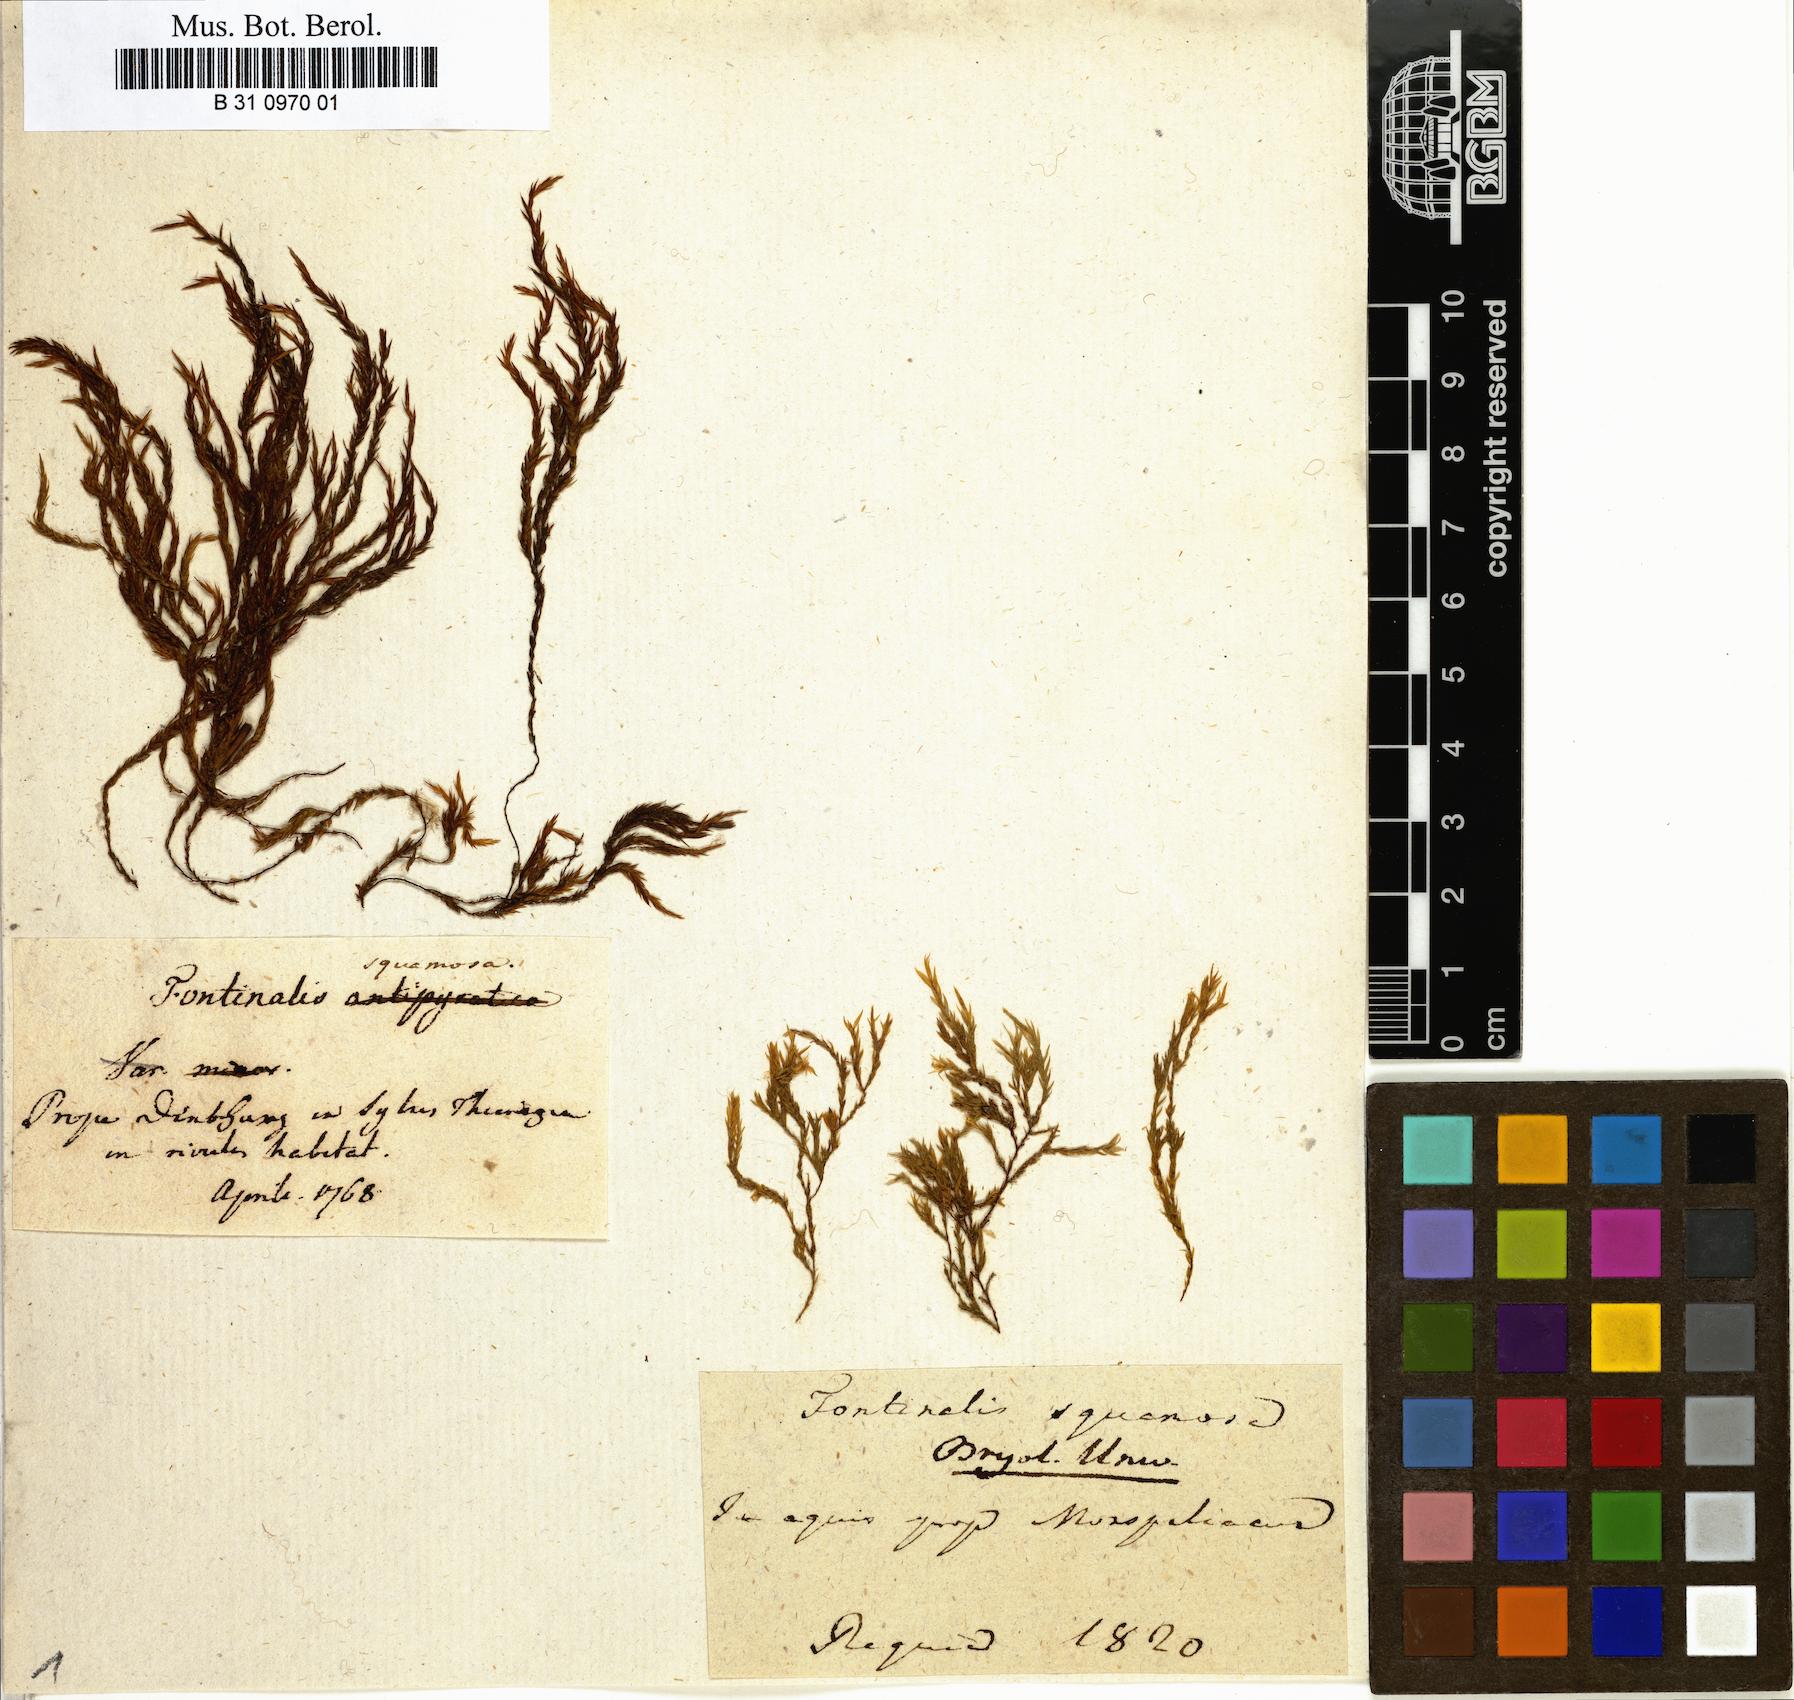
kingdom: Plantae
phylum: Bryophyta
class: Bryopsida
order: Hypnales
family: Fontinalaceae
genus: Fontinalis
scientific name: Fontinalis squamosa
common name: Alpine water-moss
